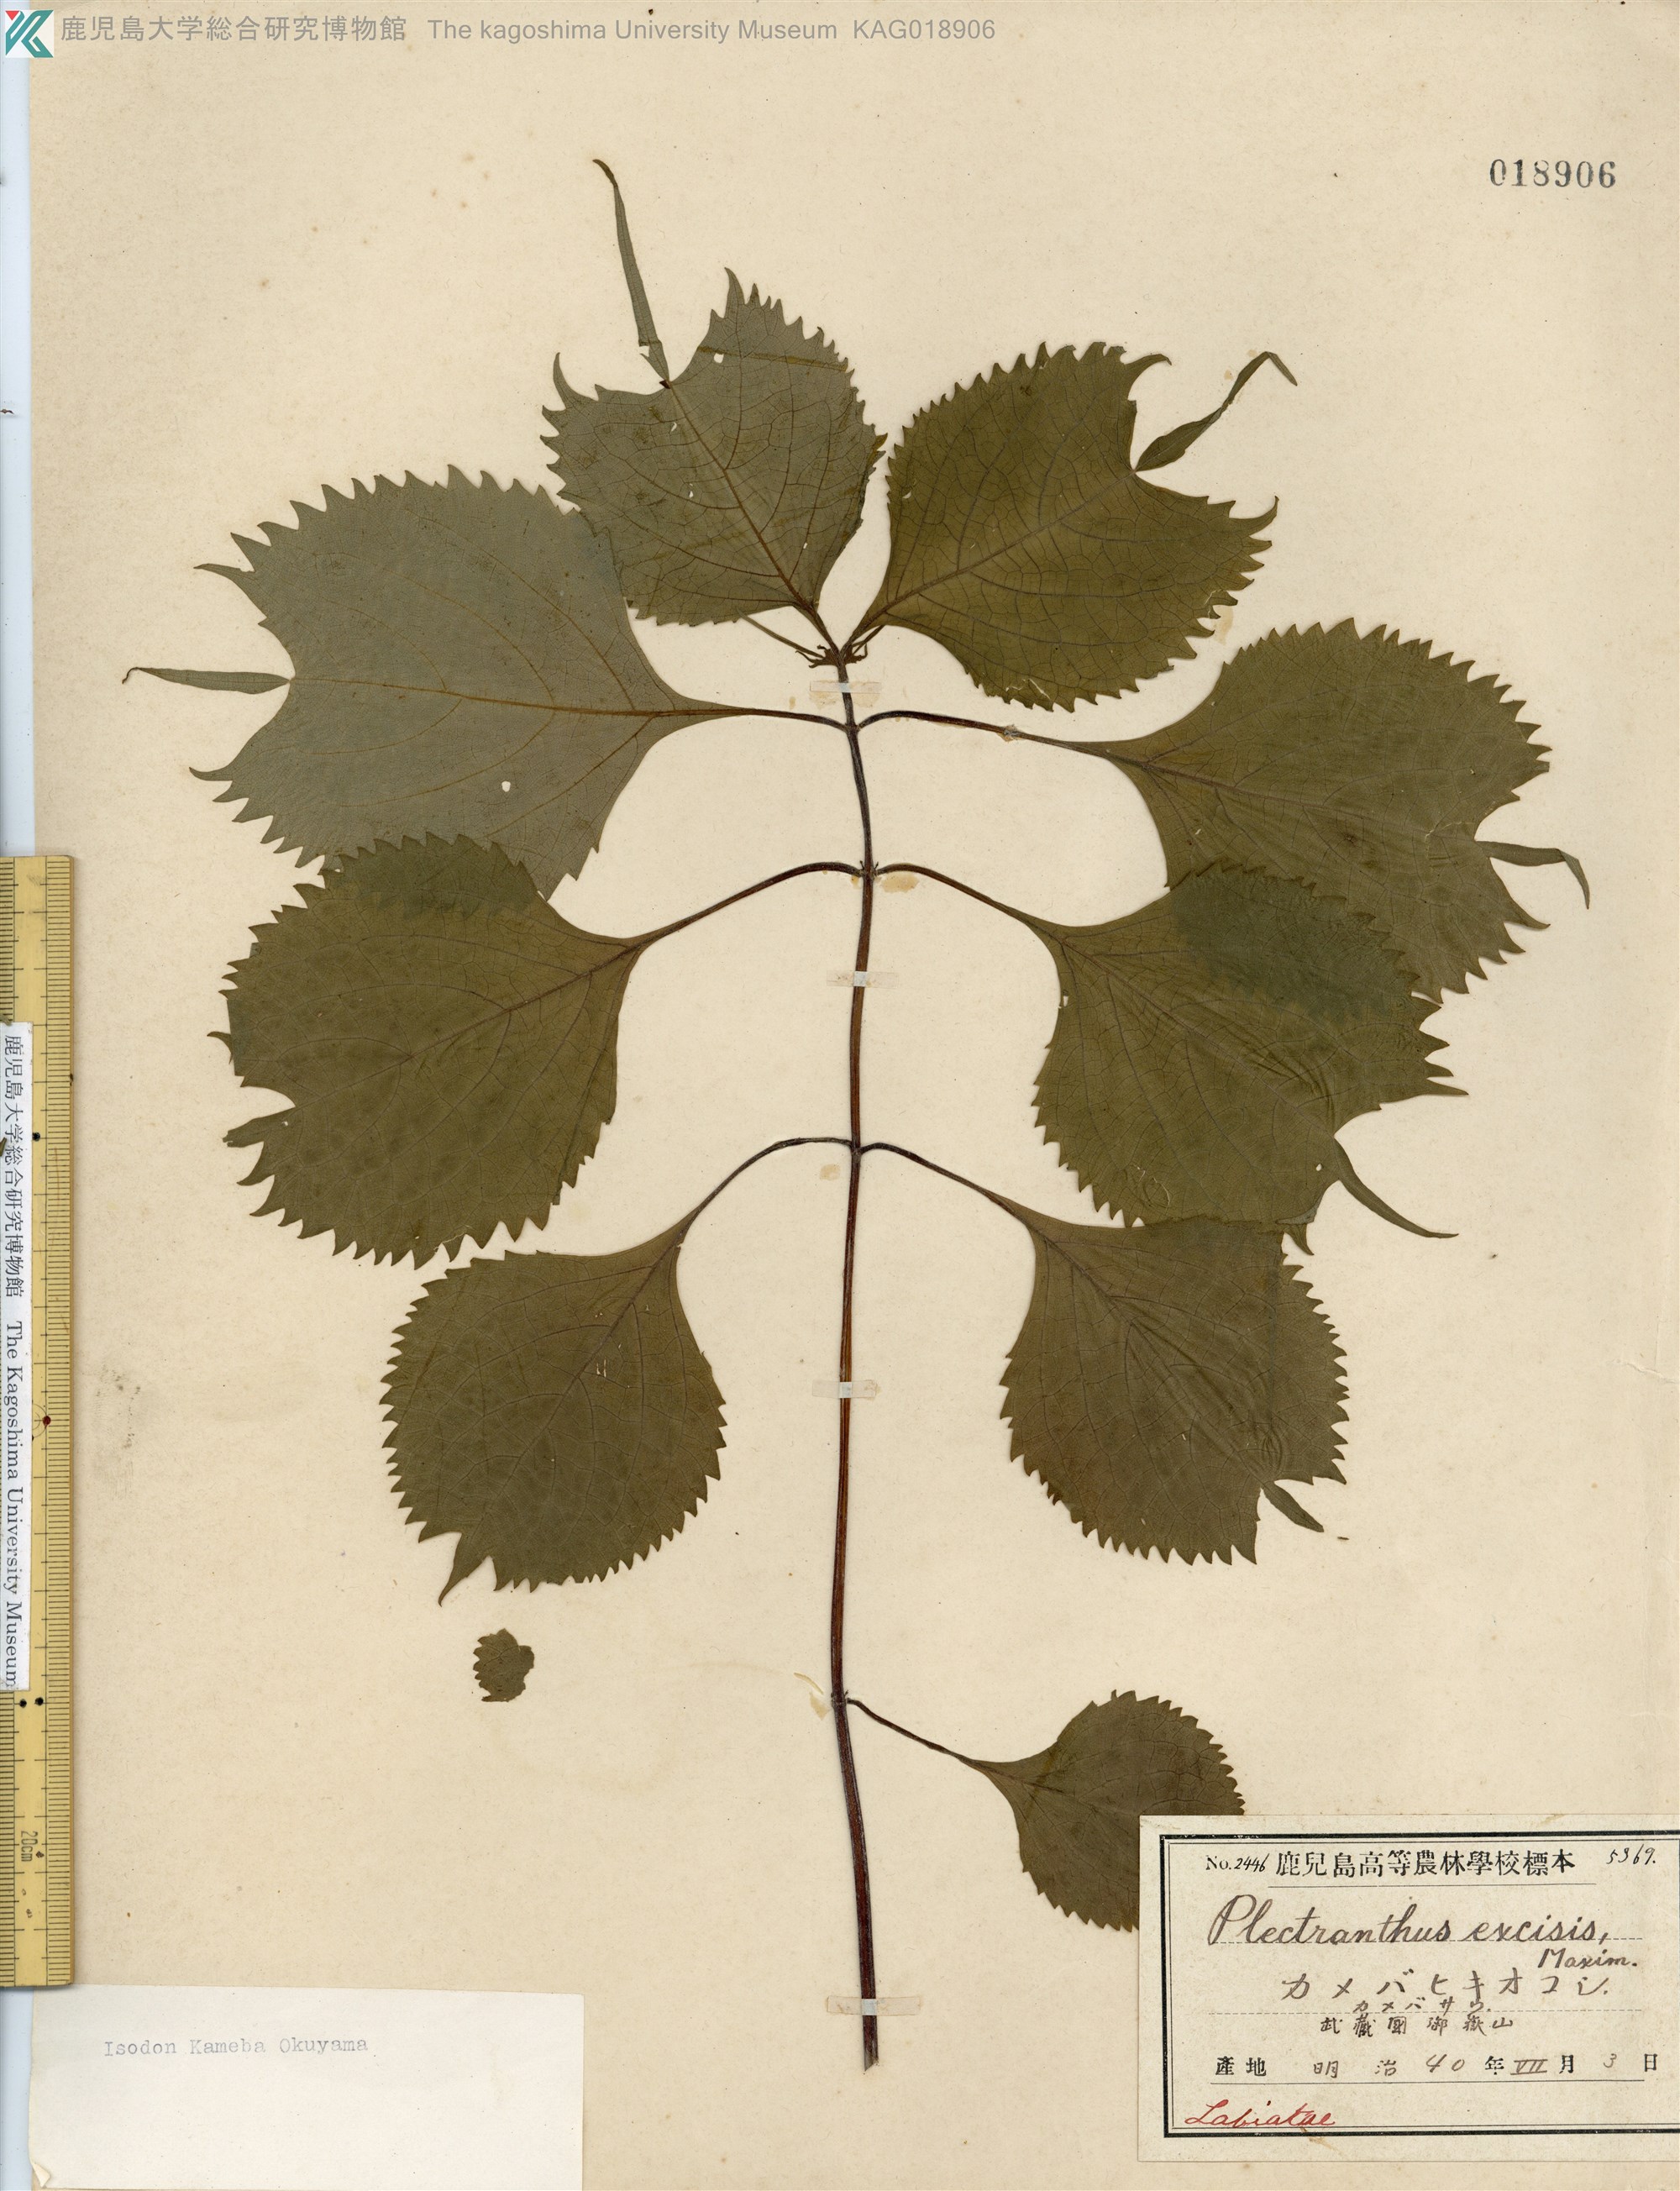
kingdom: Plantae
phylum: Tracheophyta
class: Magnoliopsida
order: Lamiales
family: Lamiaceae
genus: Isodon
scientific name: Isodon umbrosus
